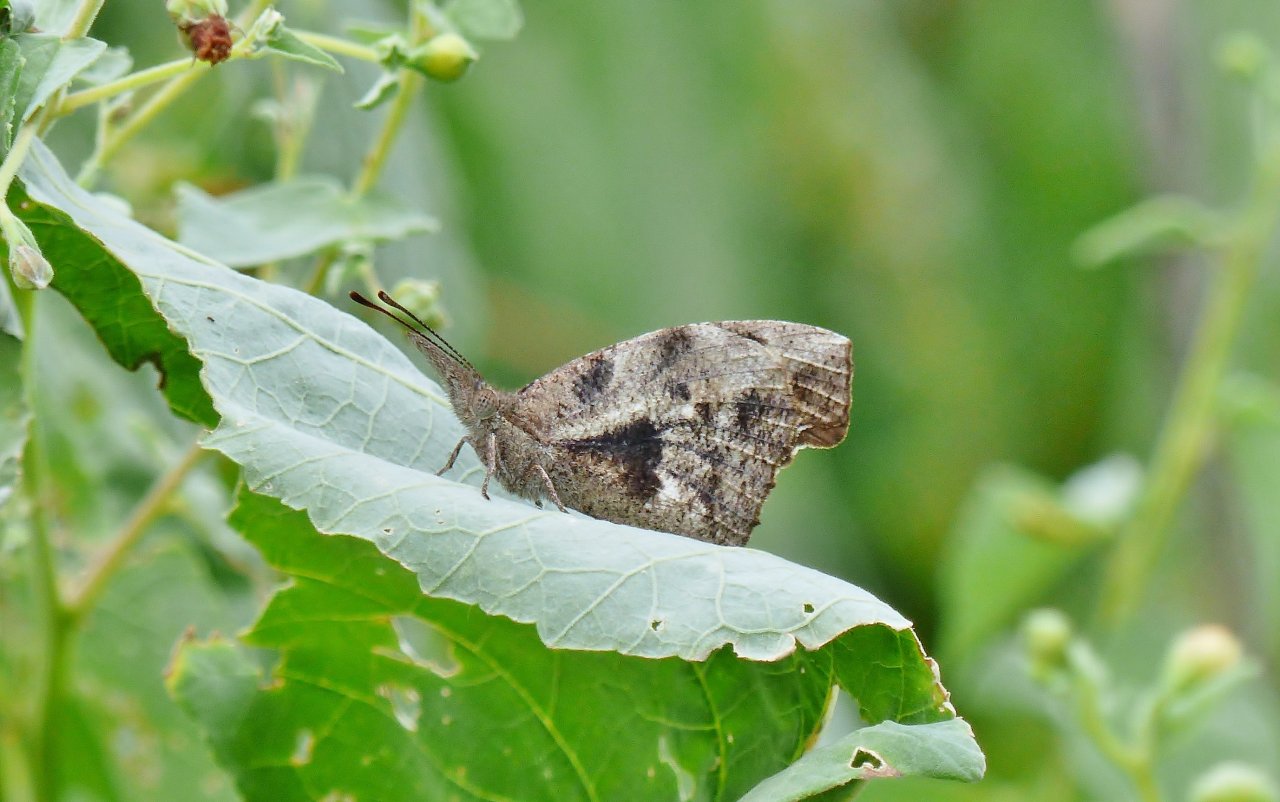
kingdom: Animalia
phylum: Arthropoda
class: Insecta
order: Lepidoptera
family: Nymphalidae
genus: Libytheana
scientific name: Libytheana carinenta
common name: American Snout
